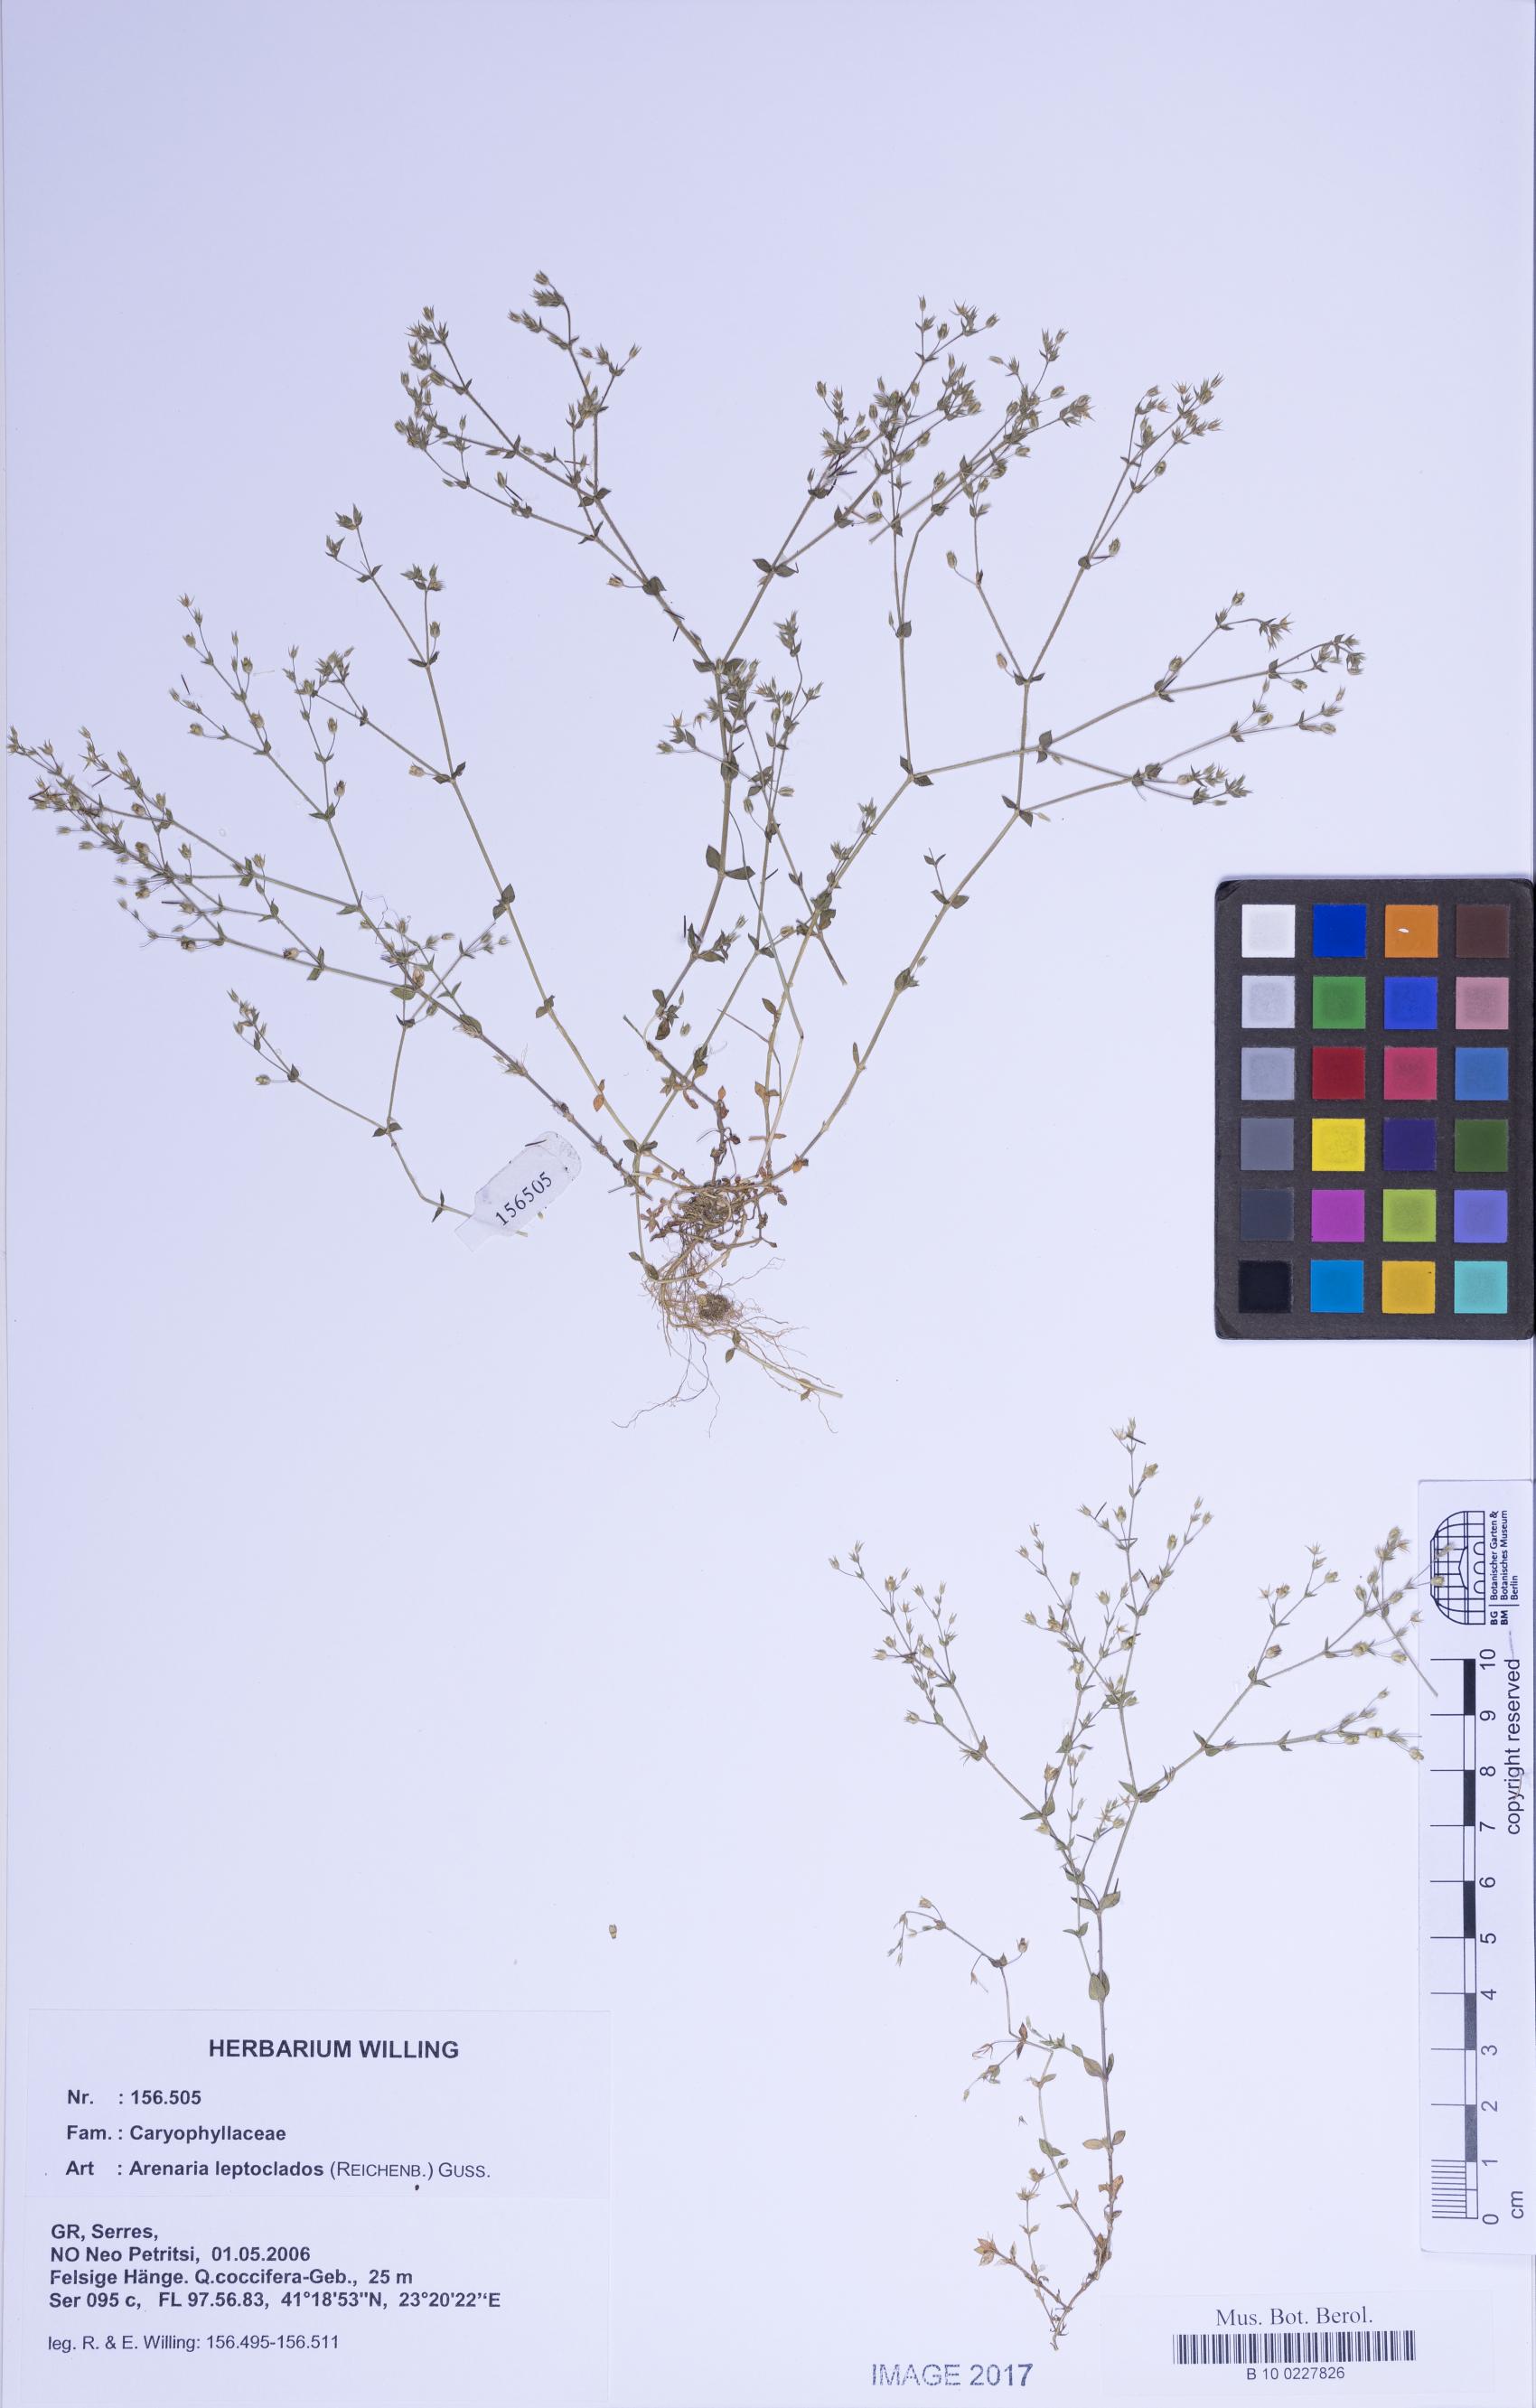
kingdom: Plantae
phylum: Tracheophyta
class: Magnoliopsida
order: Caryophyllales
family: Caryophyllaceae
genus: Arenaria
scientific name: Arenaria leptoclados
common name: Thyme-leaved sandwort
